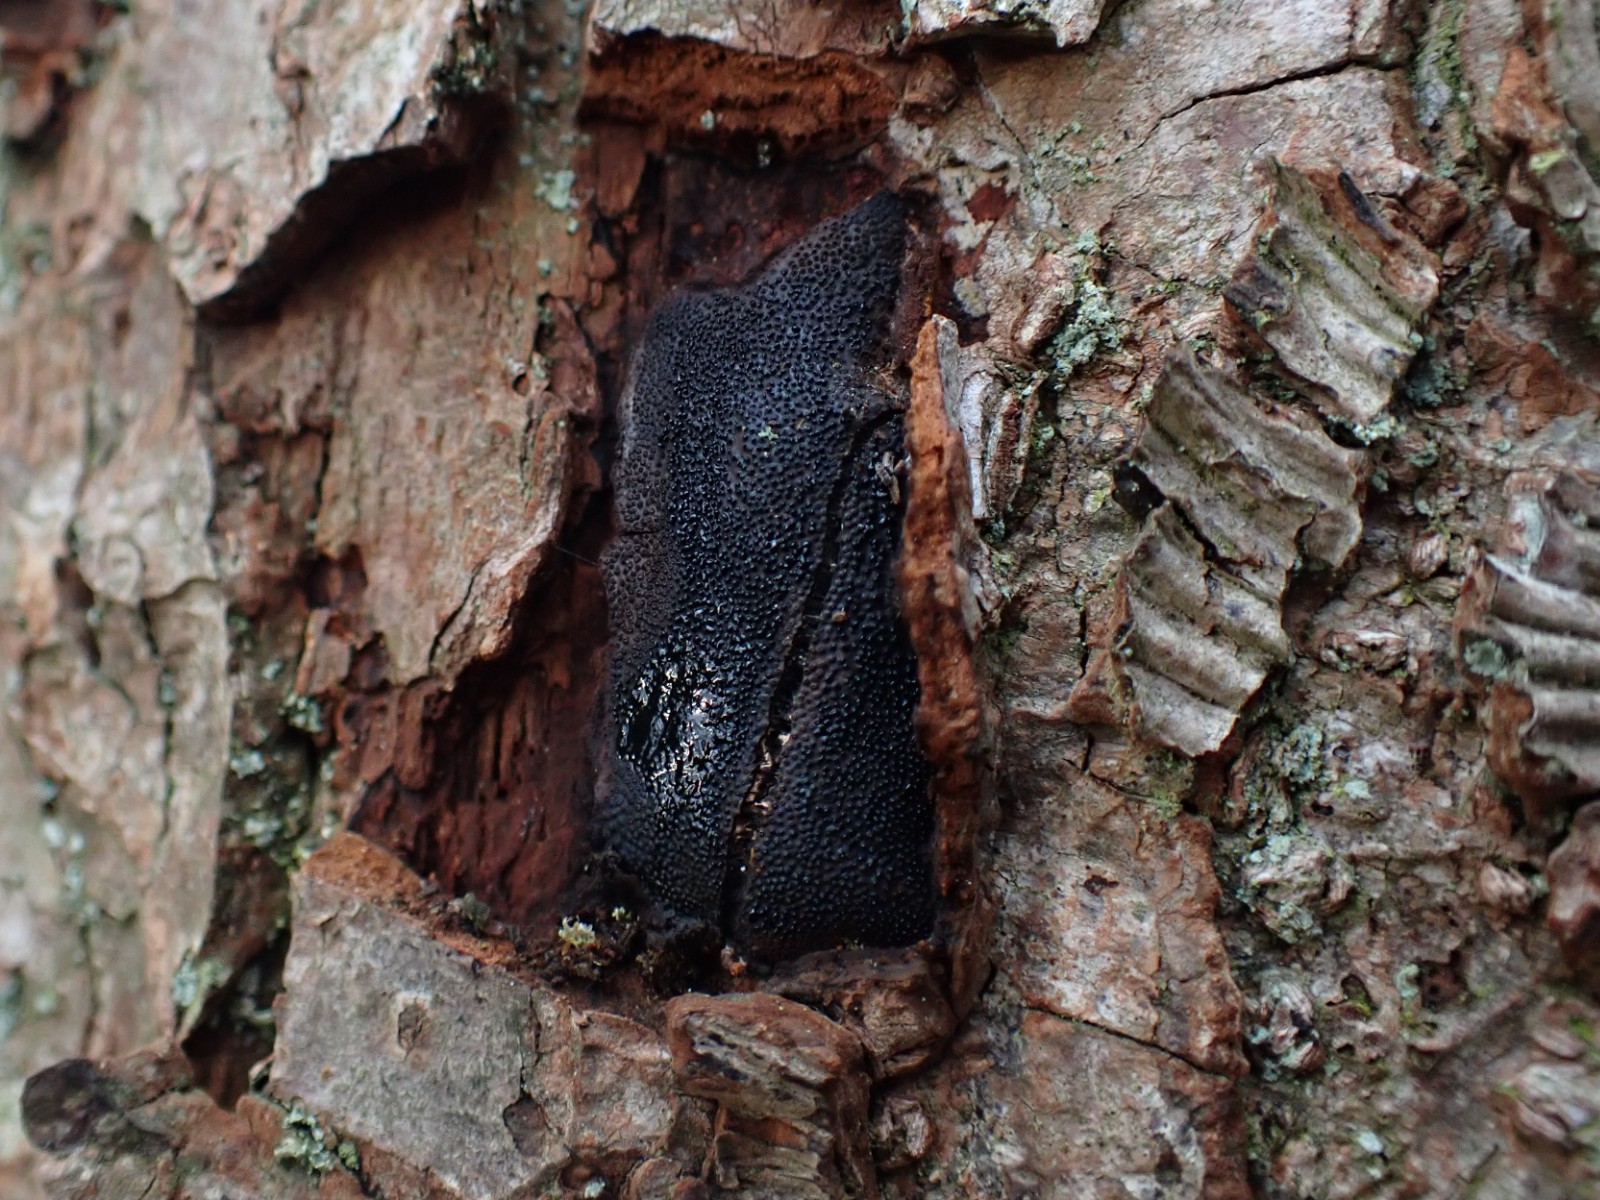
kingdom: Fungi
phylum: Ascomycota
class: Sordariomycetes
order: Boliniales
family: Boliniaceae
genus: Camarops
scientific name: Camarops polysperma
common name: elle-kulsnegl
